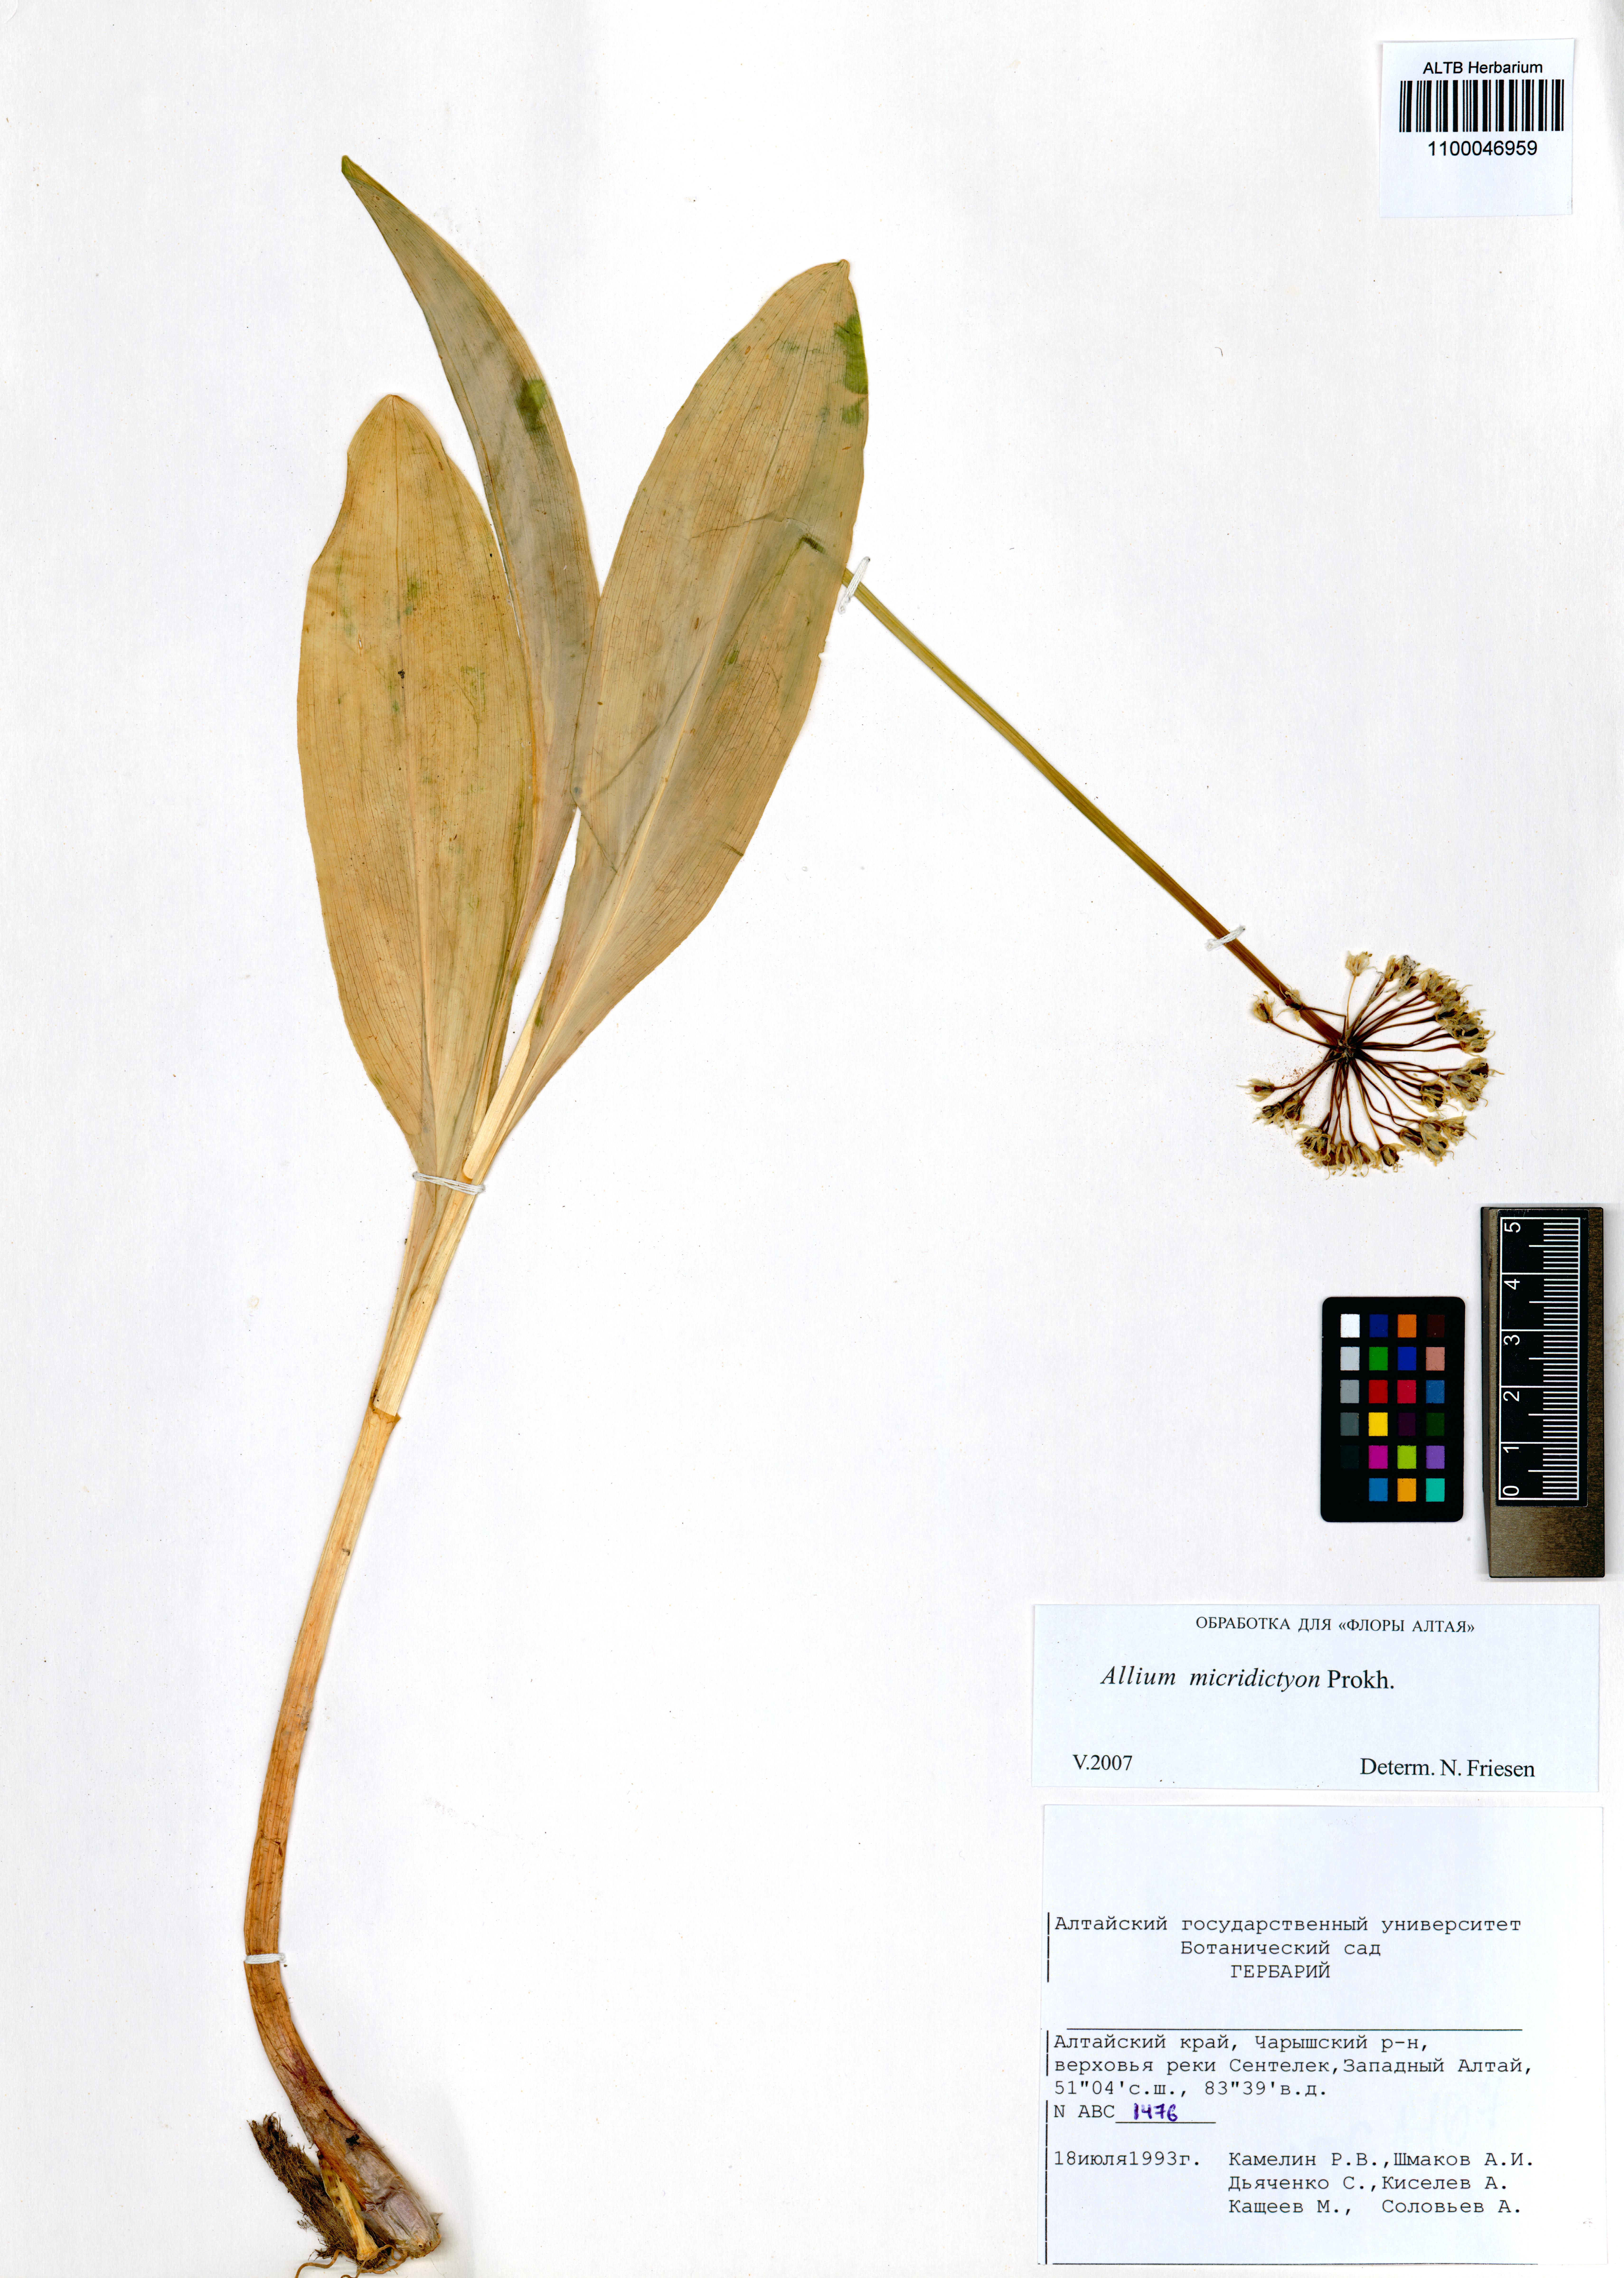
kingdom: Plantae
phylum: Tracheophyta
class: Liliopsida
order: Asparagales
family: Amaryllidaceae
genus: Allium
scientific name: Allium microdictyon
